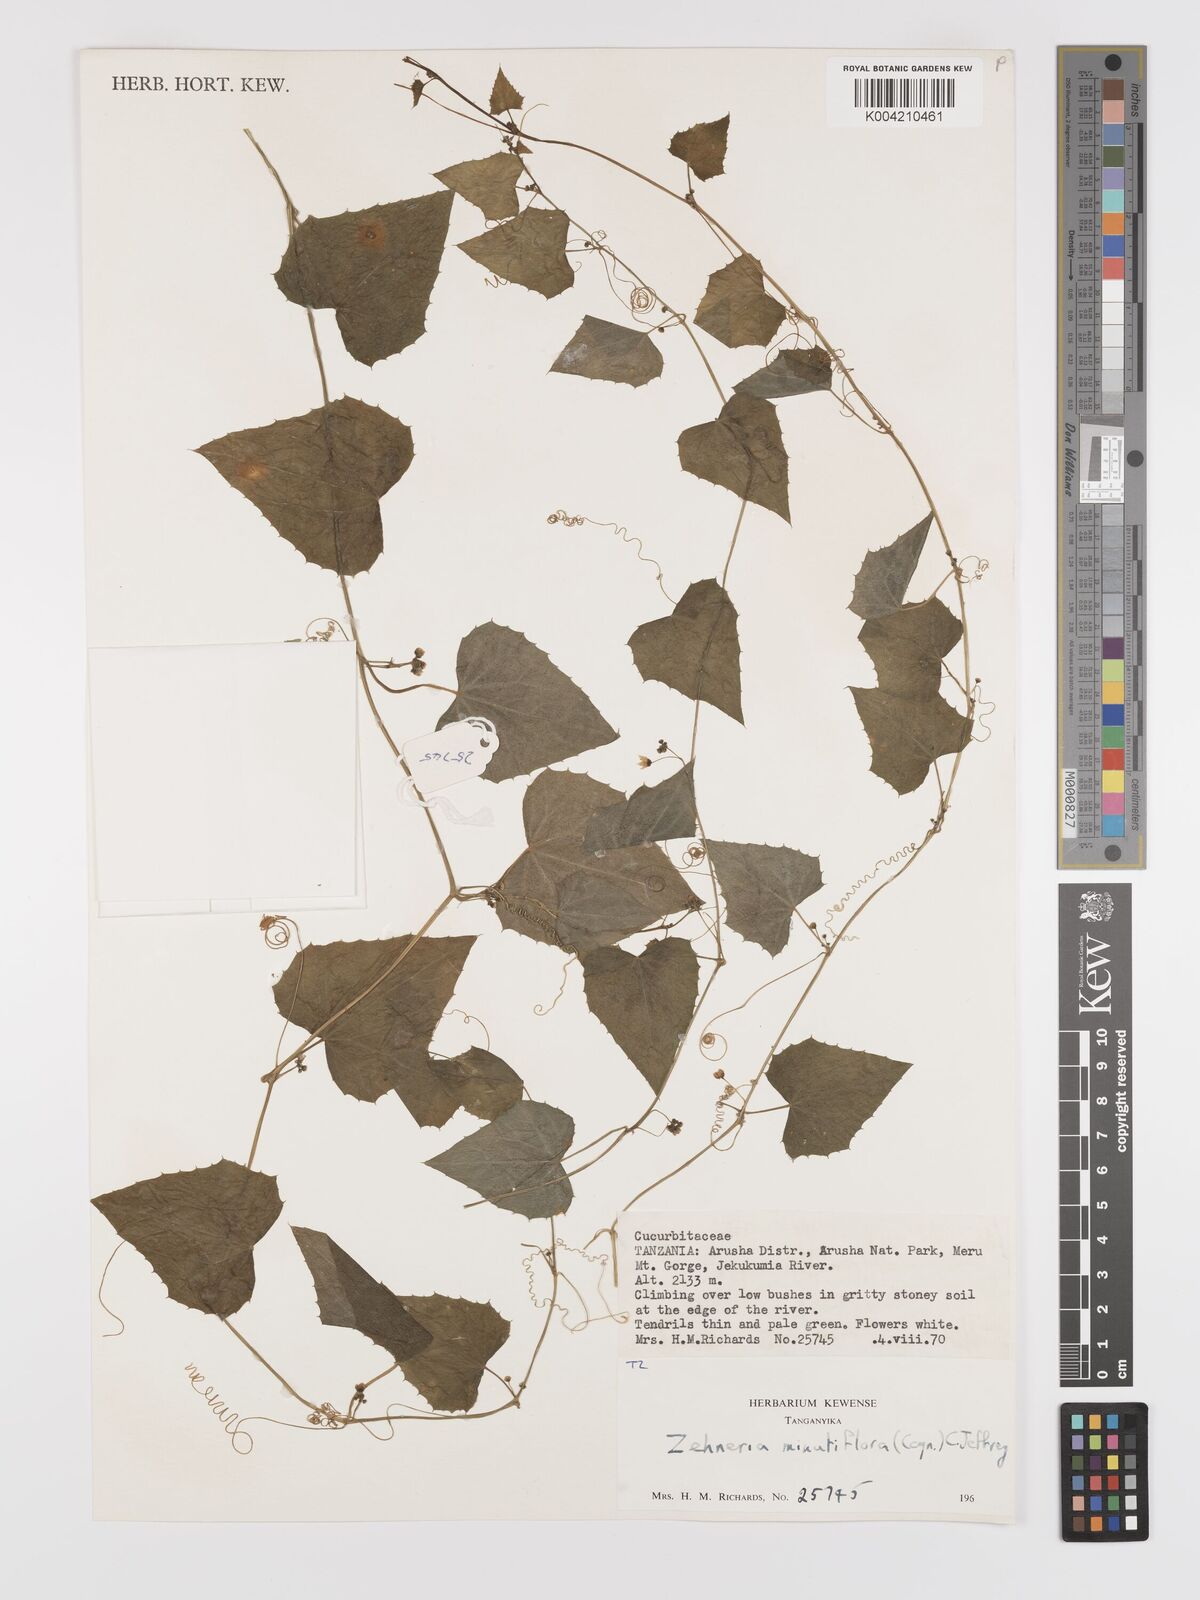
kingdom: Plantae
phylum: Tracheophyta
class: Magnoliopsida
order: Cucurbitales
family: Cucurbitaceae
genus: Zehneria
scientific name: Zehneria minutiflora
